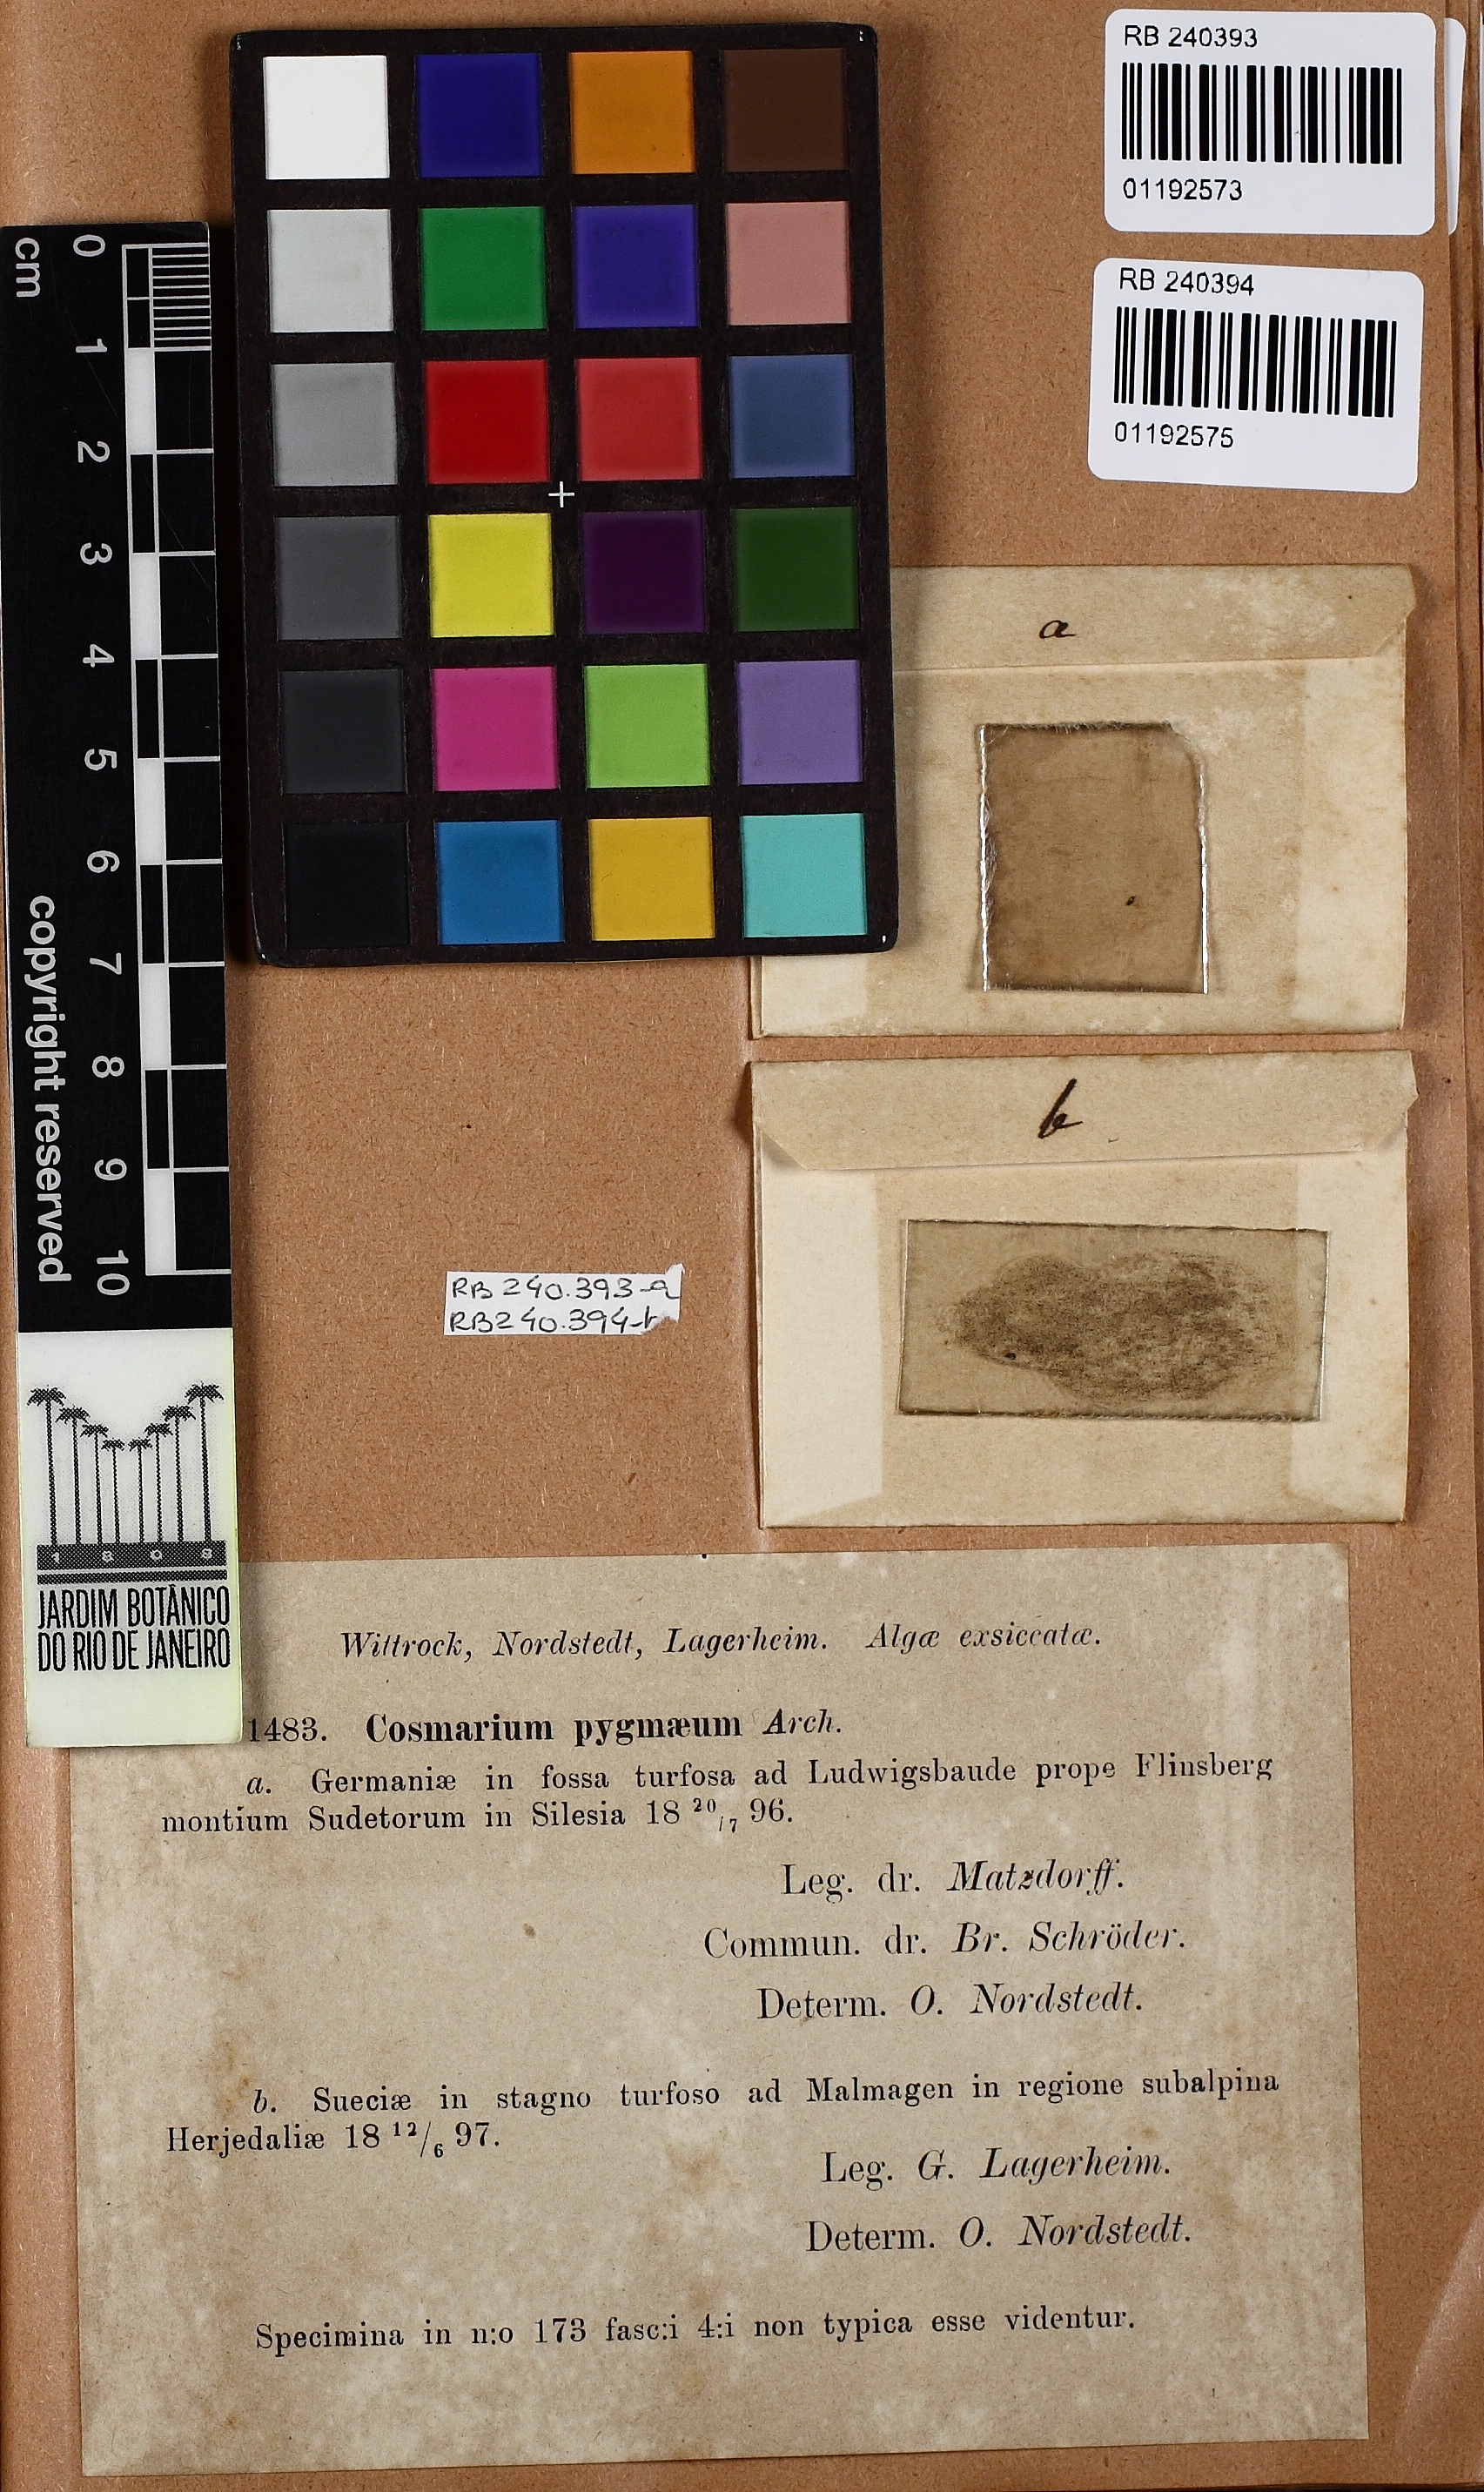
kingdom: Plantae
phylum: Charophyta
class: Conjugatophyceae
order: Desmidiales
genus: Cosmarium
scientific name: Cosmarium pygmaeum
